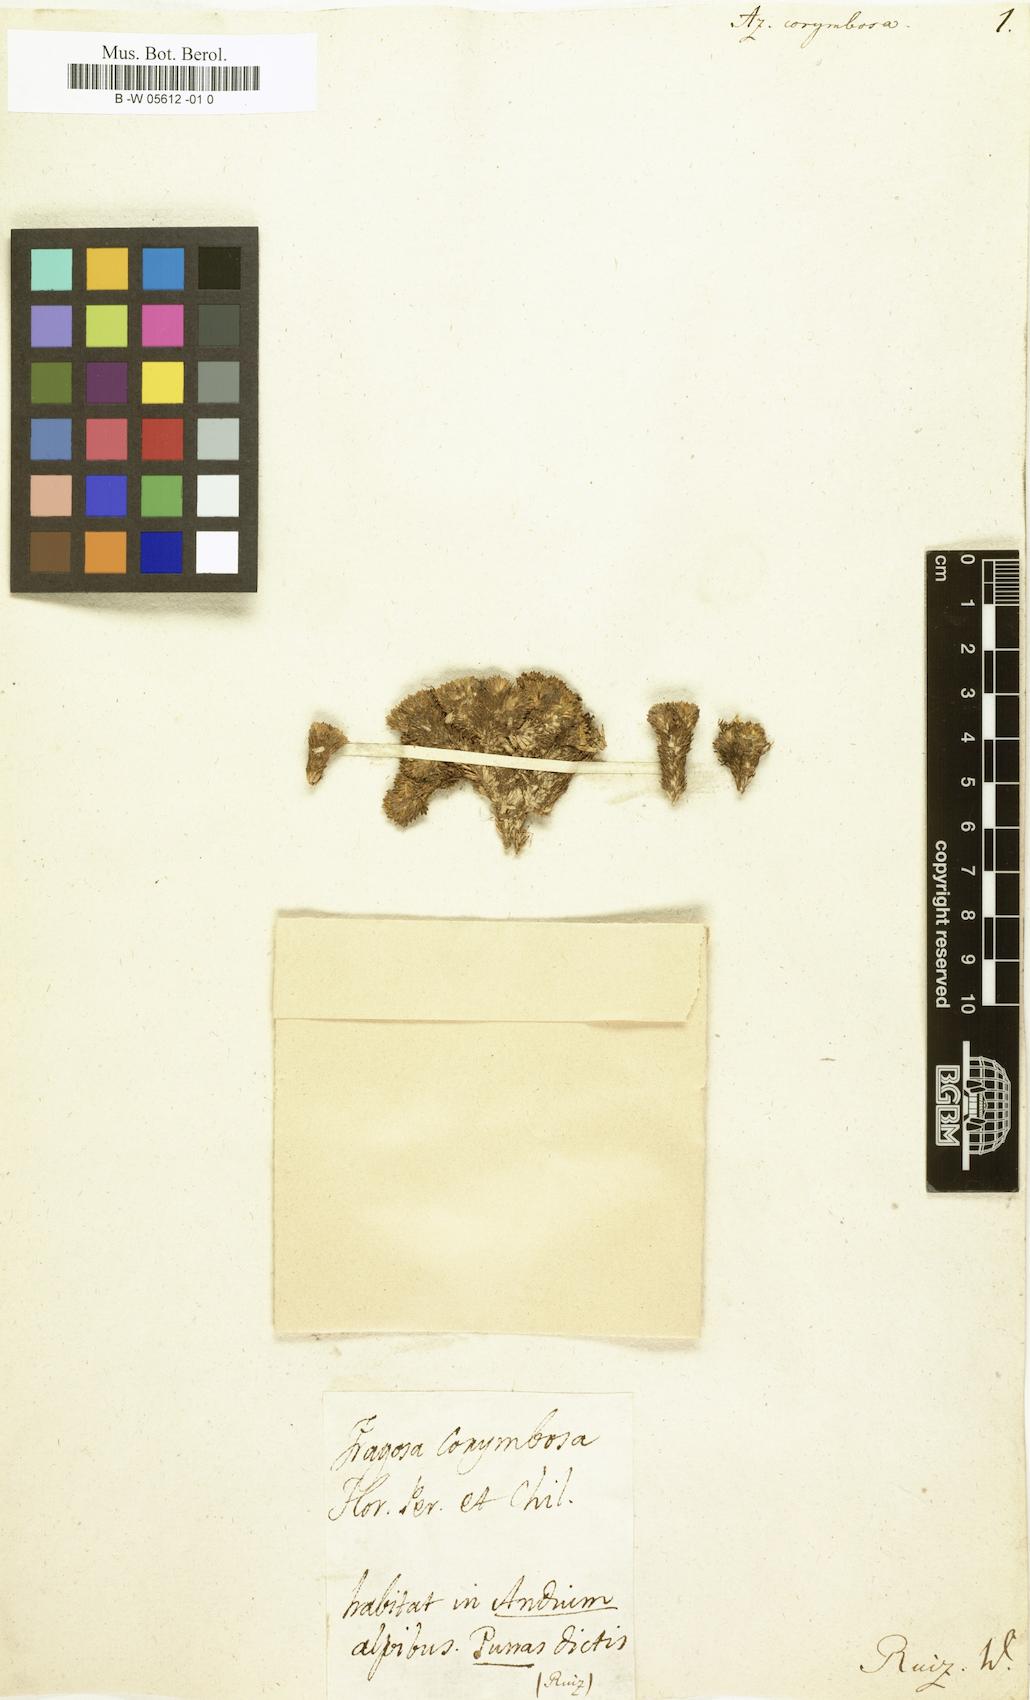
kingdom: Plantae
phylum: Tracheophyta
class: Magnoliopsida
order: Apiales
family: Apiaceae
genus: Azorella
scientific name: Azorella corymbosa
